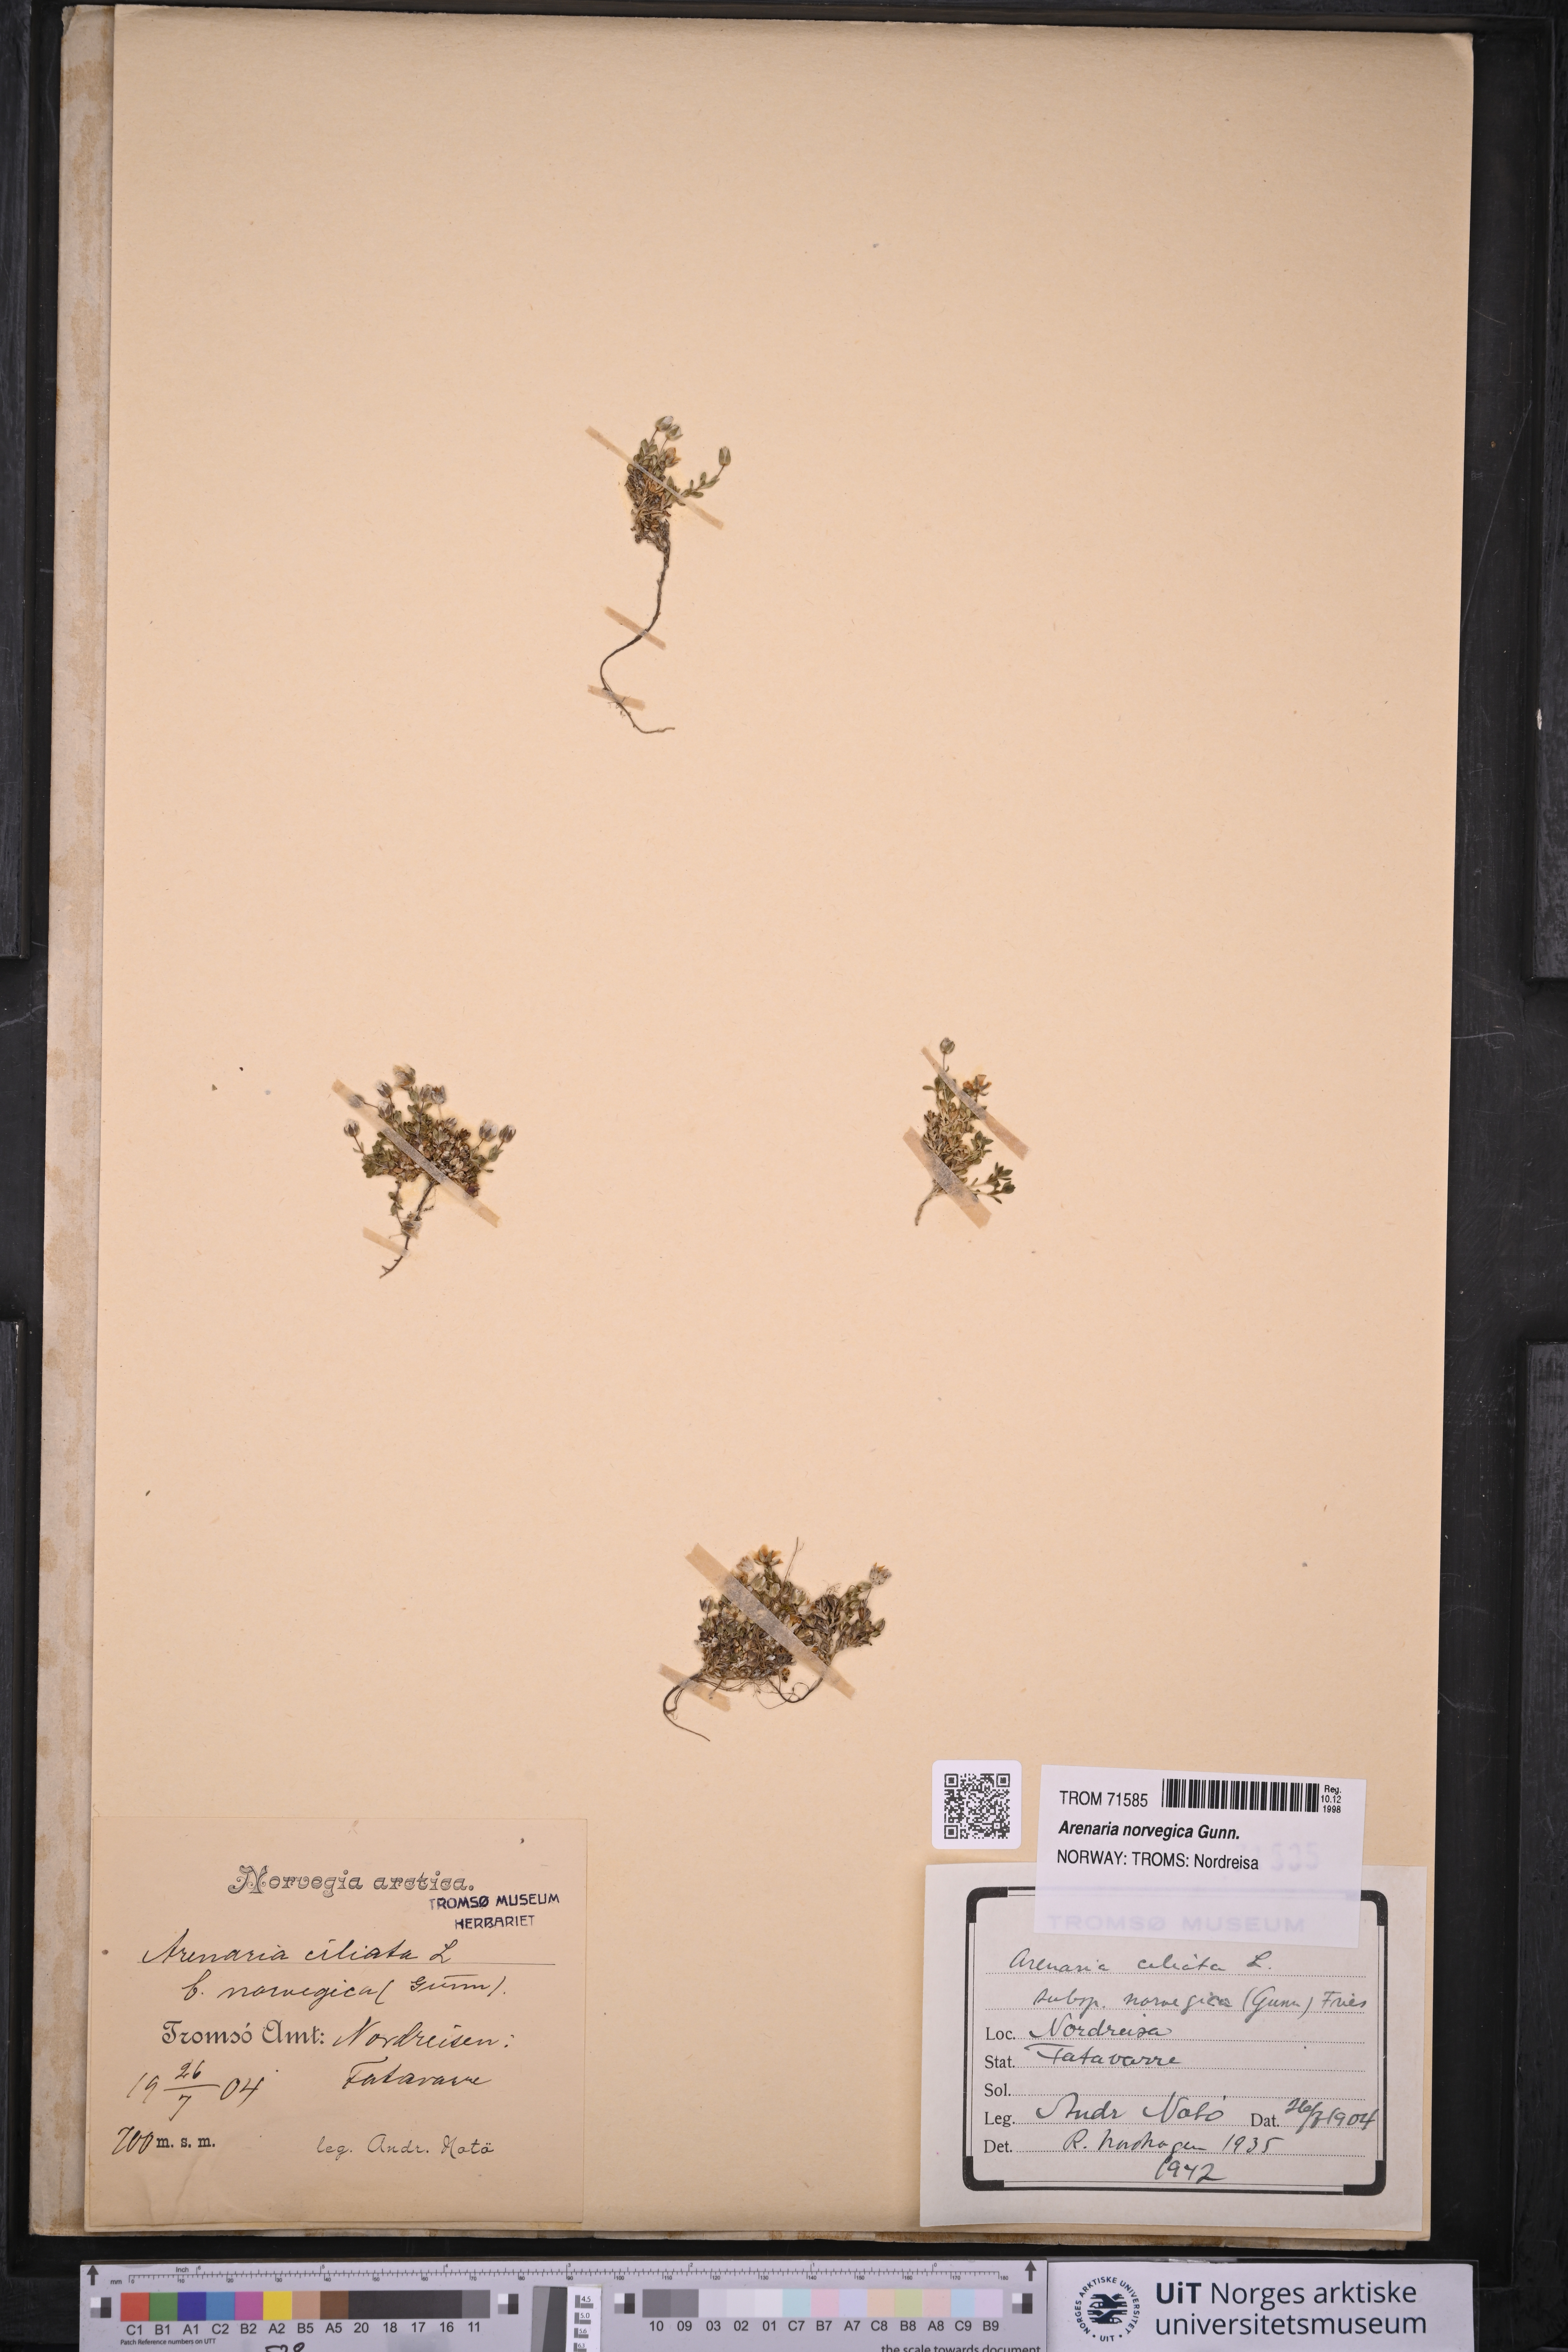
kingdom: Plantae
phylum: Tracheophyta
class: Magnoliopsida
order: Caryophyllales
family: Caryophyllaceae
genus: Arenaria
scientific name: Arenaria norvegica
